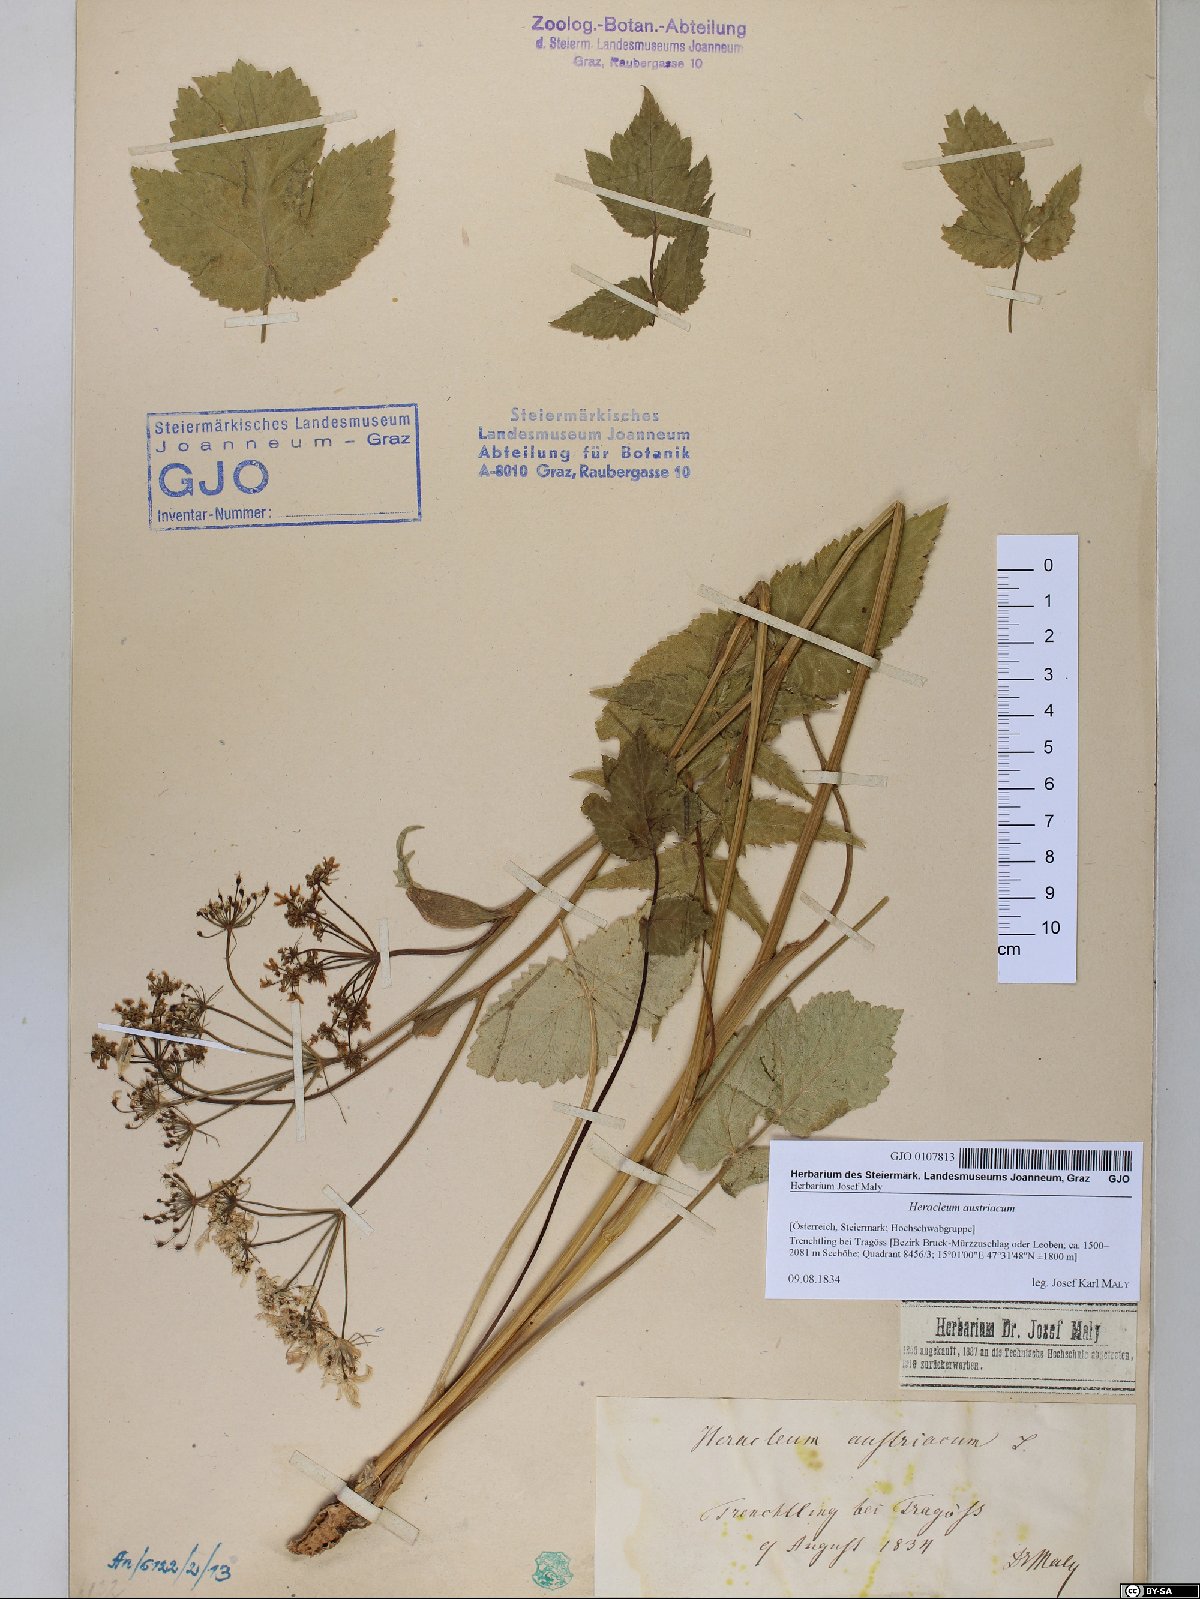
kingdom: Plantae
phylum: Tracheophyta
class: Magnoliopsida
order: Apiales
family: Apiaceae
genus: Heracleum
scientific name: Heracleum austriacum
